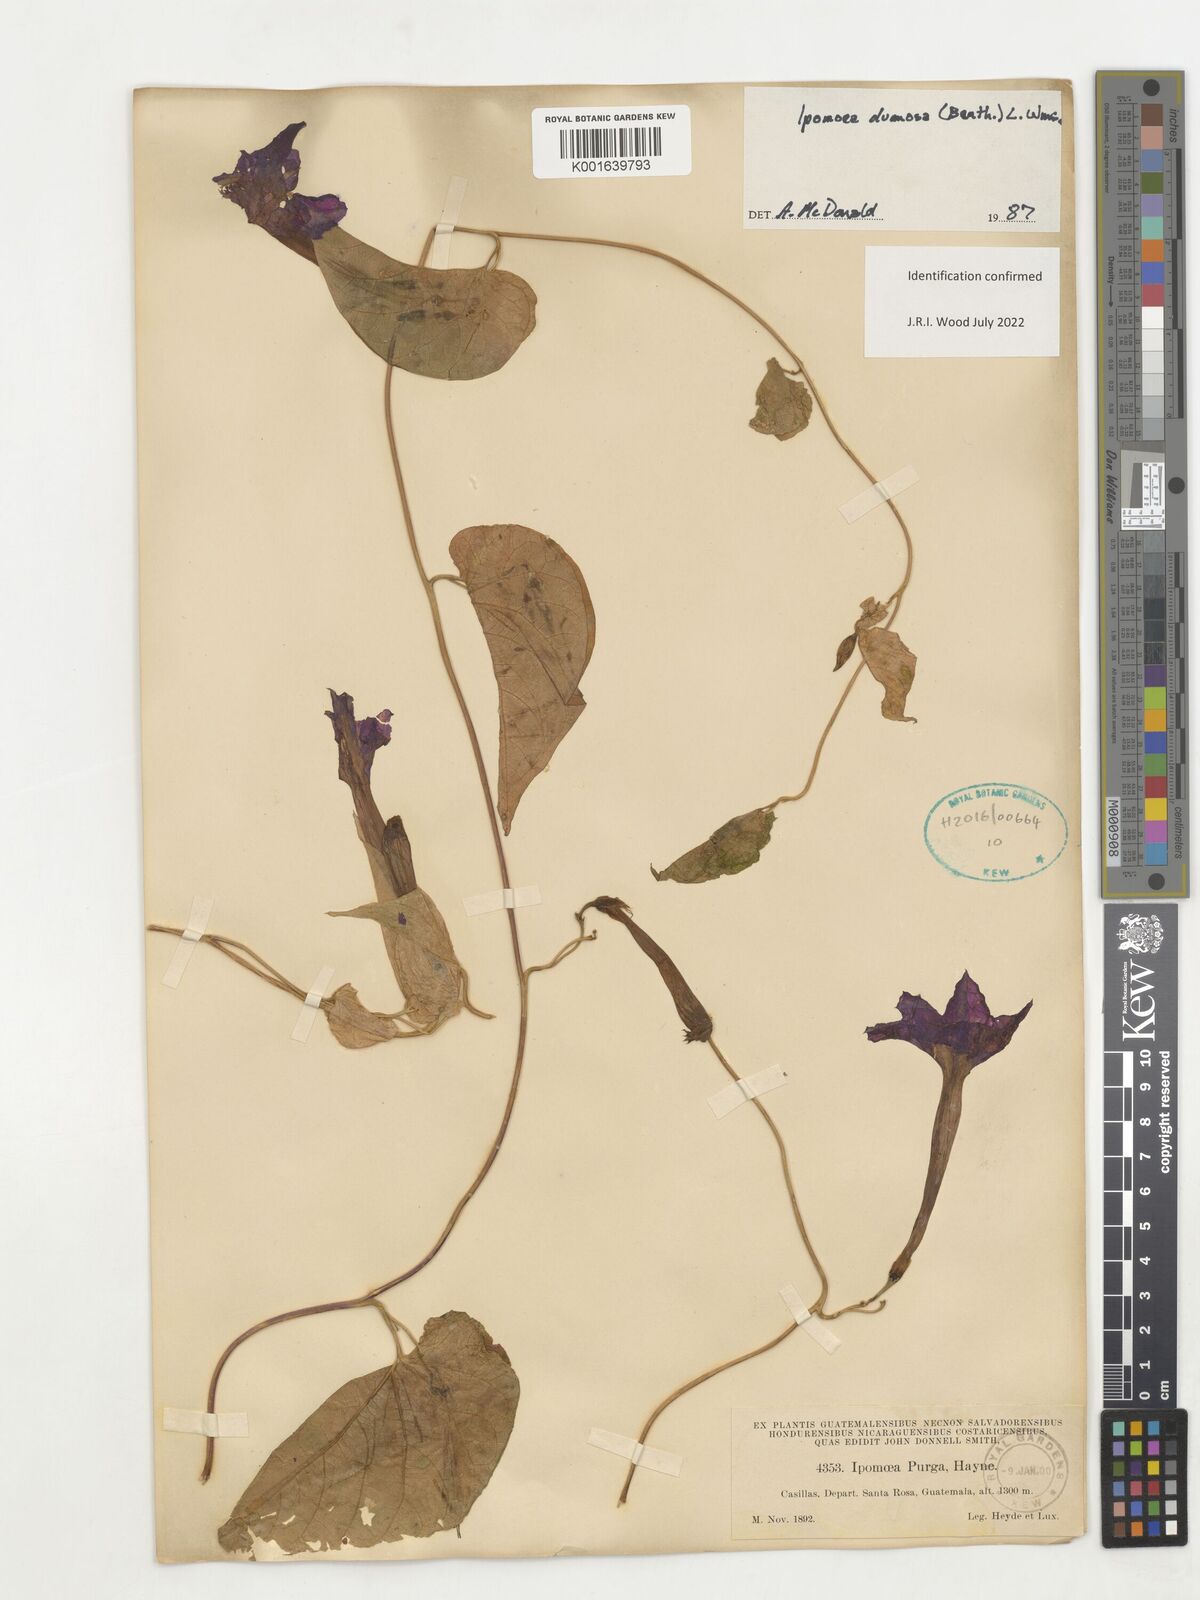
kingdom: Plantae
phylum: Tracheophyta
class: Magnoliopsida
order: Solanales
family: Convolvulaceae
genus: Ipomoea
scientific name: Ipomoea dumosa
